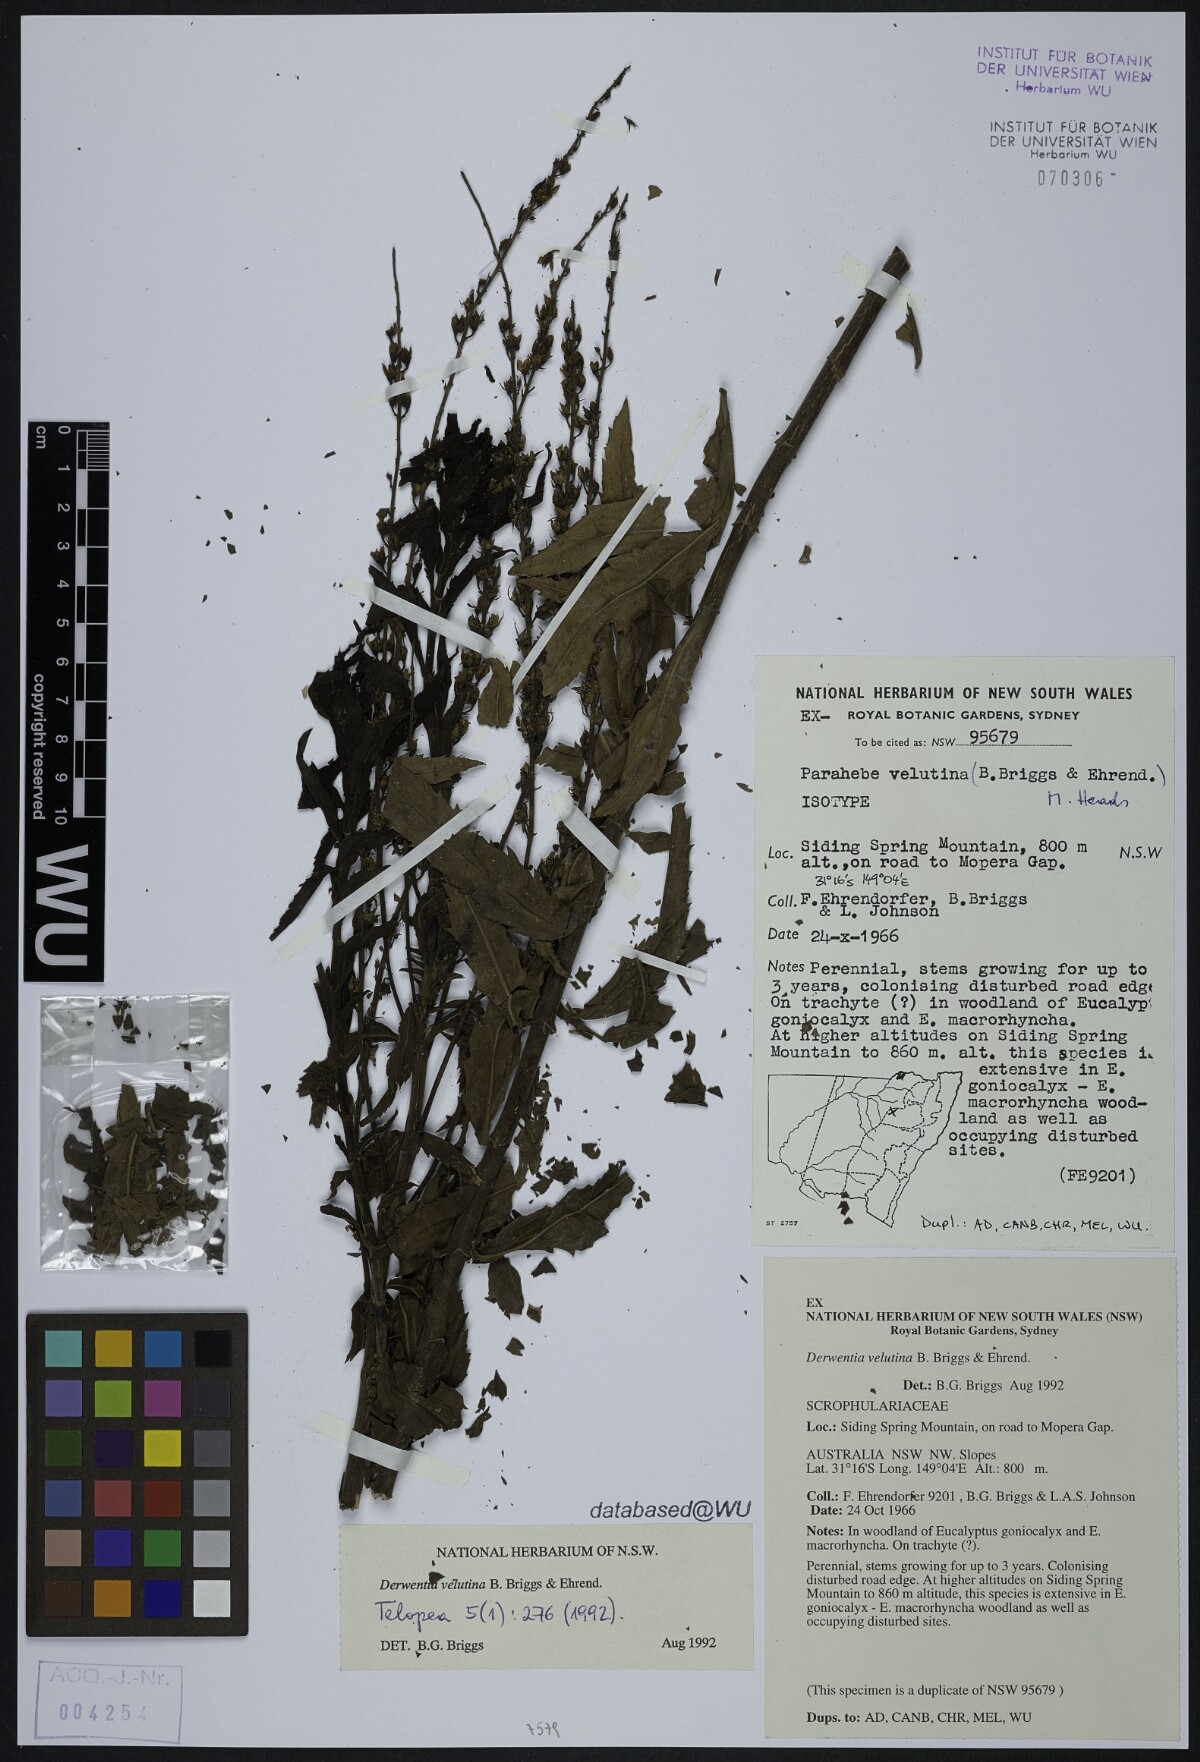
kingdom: Plantae
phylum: Tracheophyta
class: Magnoliopsida
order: Lamiales
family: Plantaginaceae
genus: Veronica
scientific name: Veronica velutina
